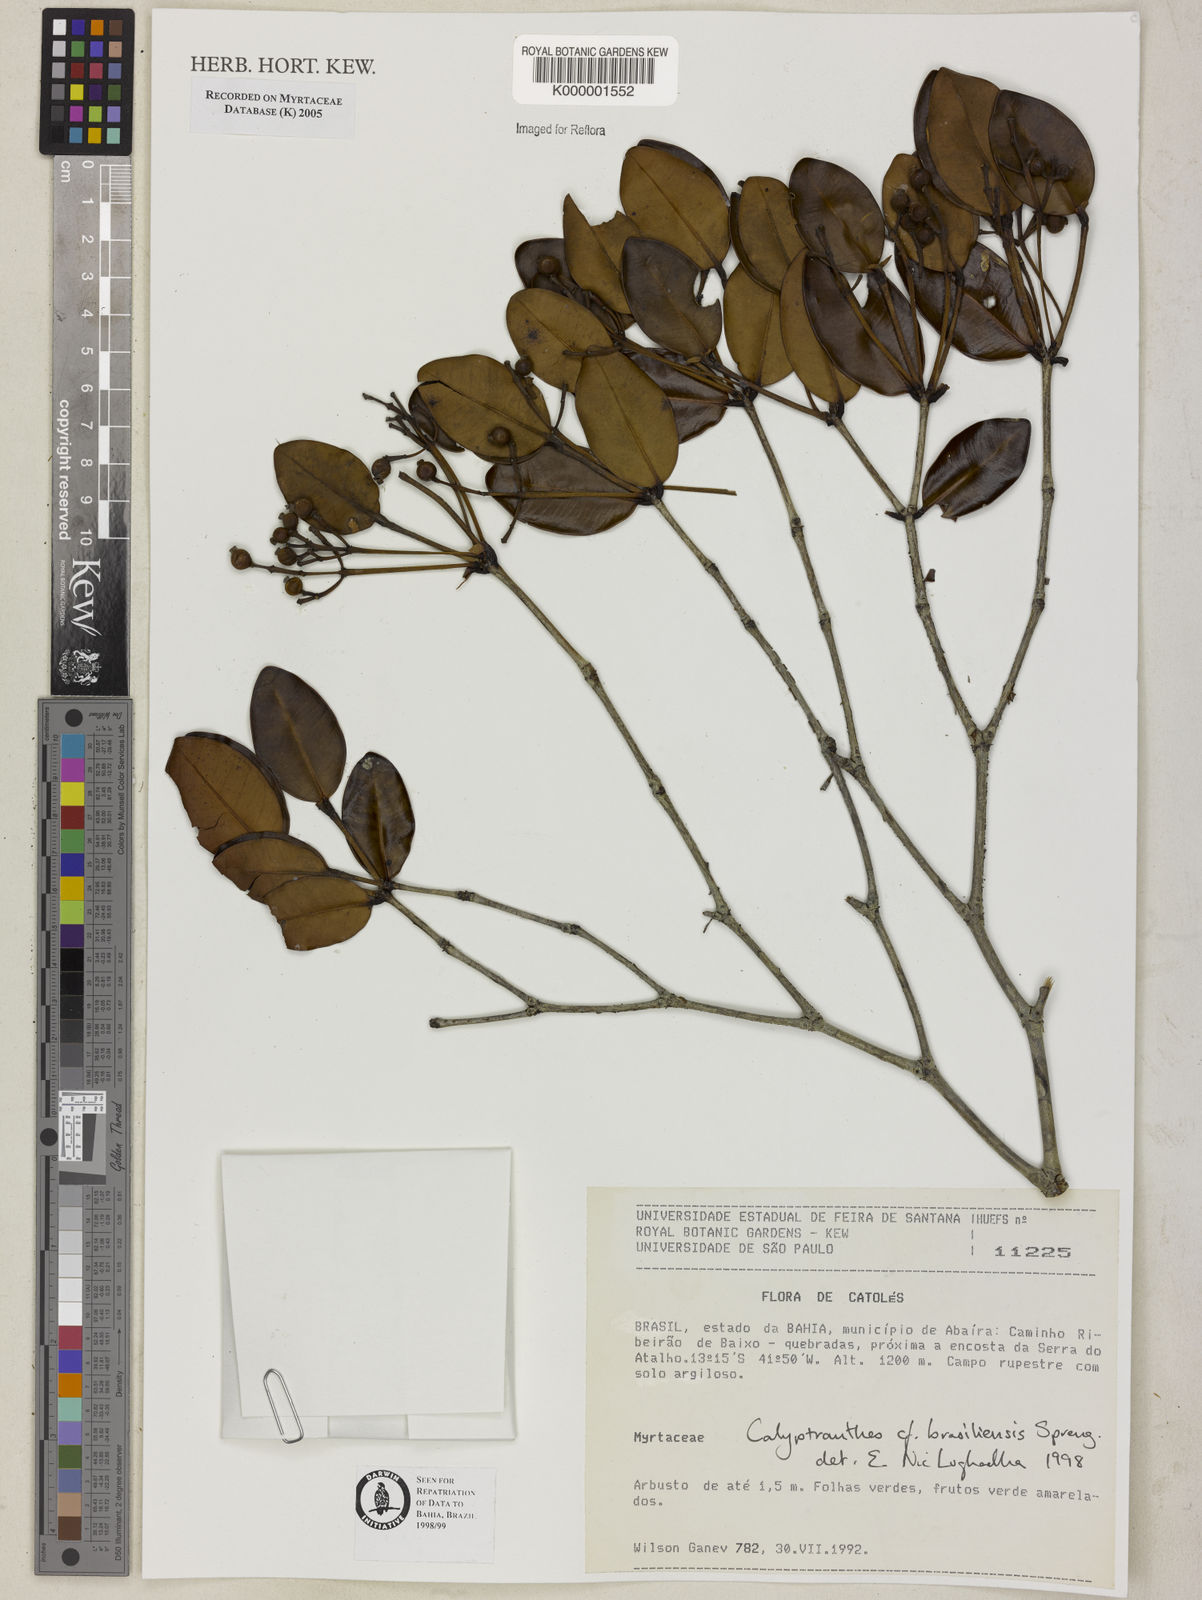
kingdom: Plantae
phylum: Tracheophyta
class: Magnoliopsida
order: Myrtales
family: Myrtaceae
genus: Myrcia
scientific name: Myrcia neobrasiliensis
